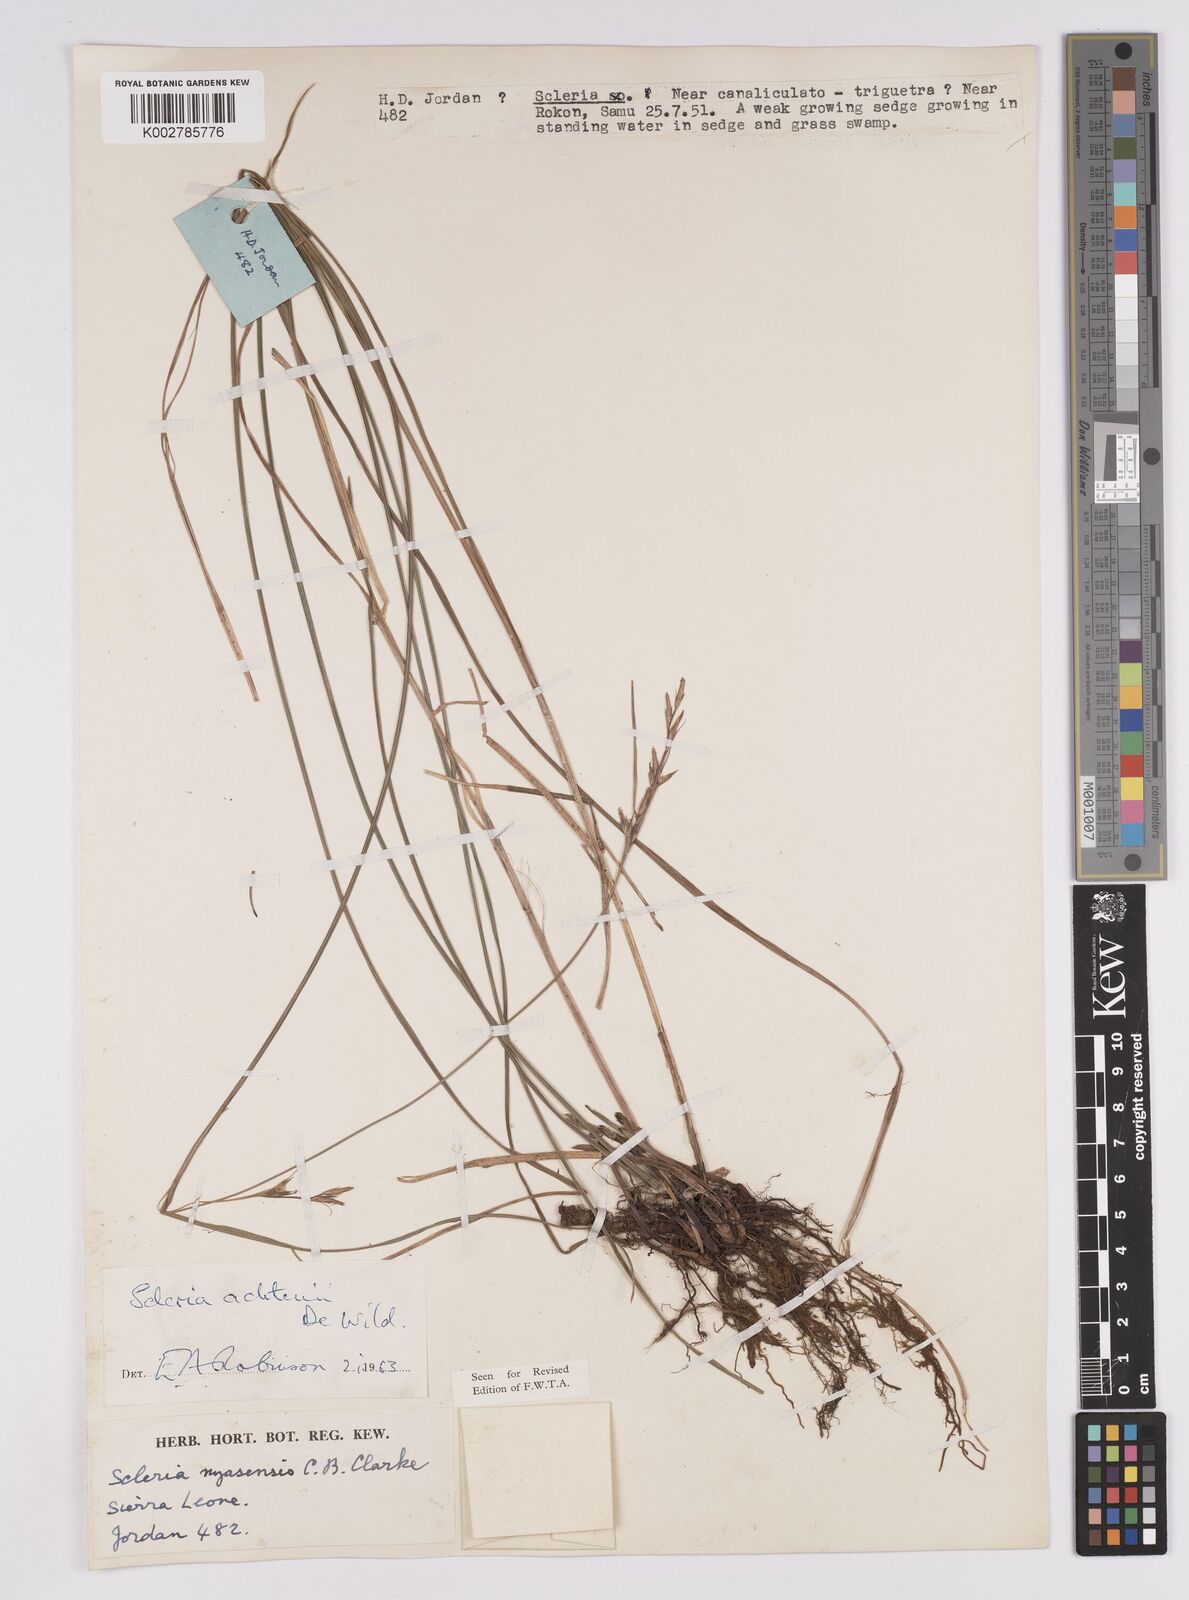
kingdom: Plantae
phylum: Tracheophyta
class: Liliopsida
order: Poales
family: Cyperaceae
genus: Scleria
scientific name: Scleria achtenii
